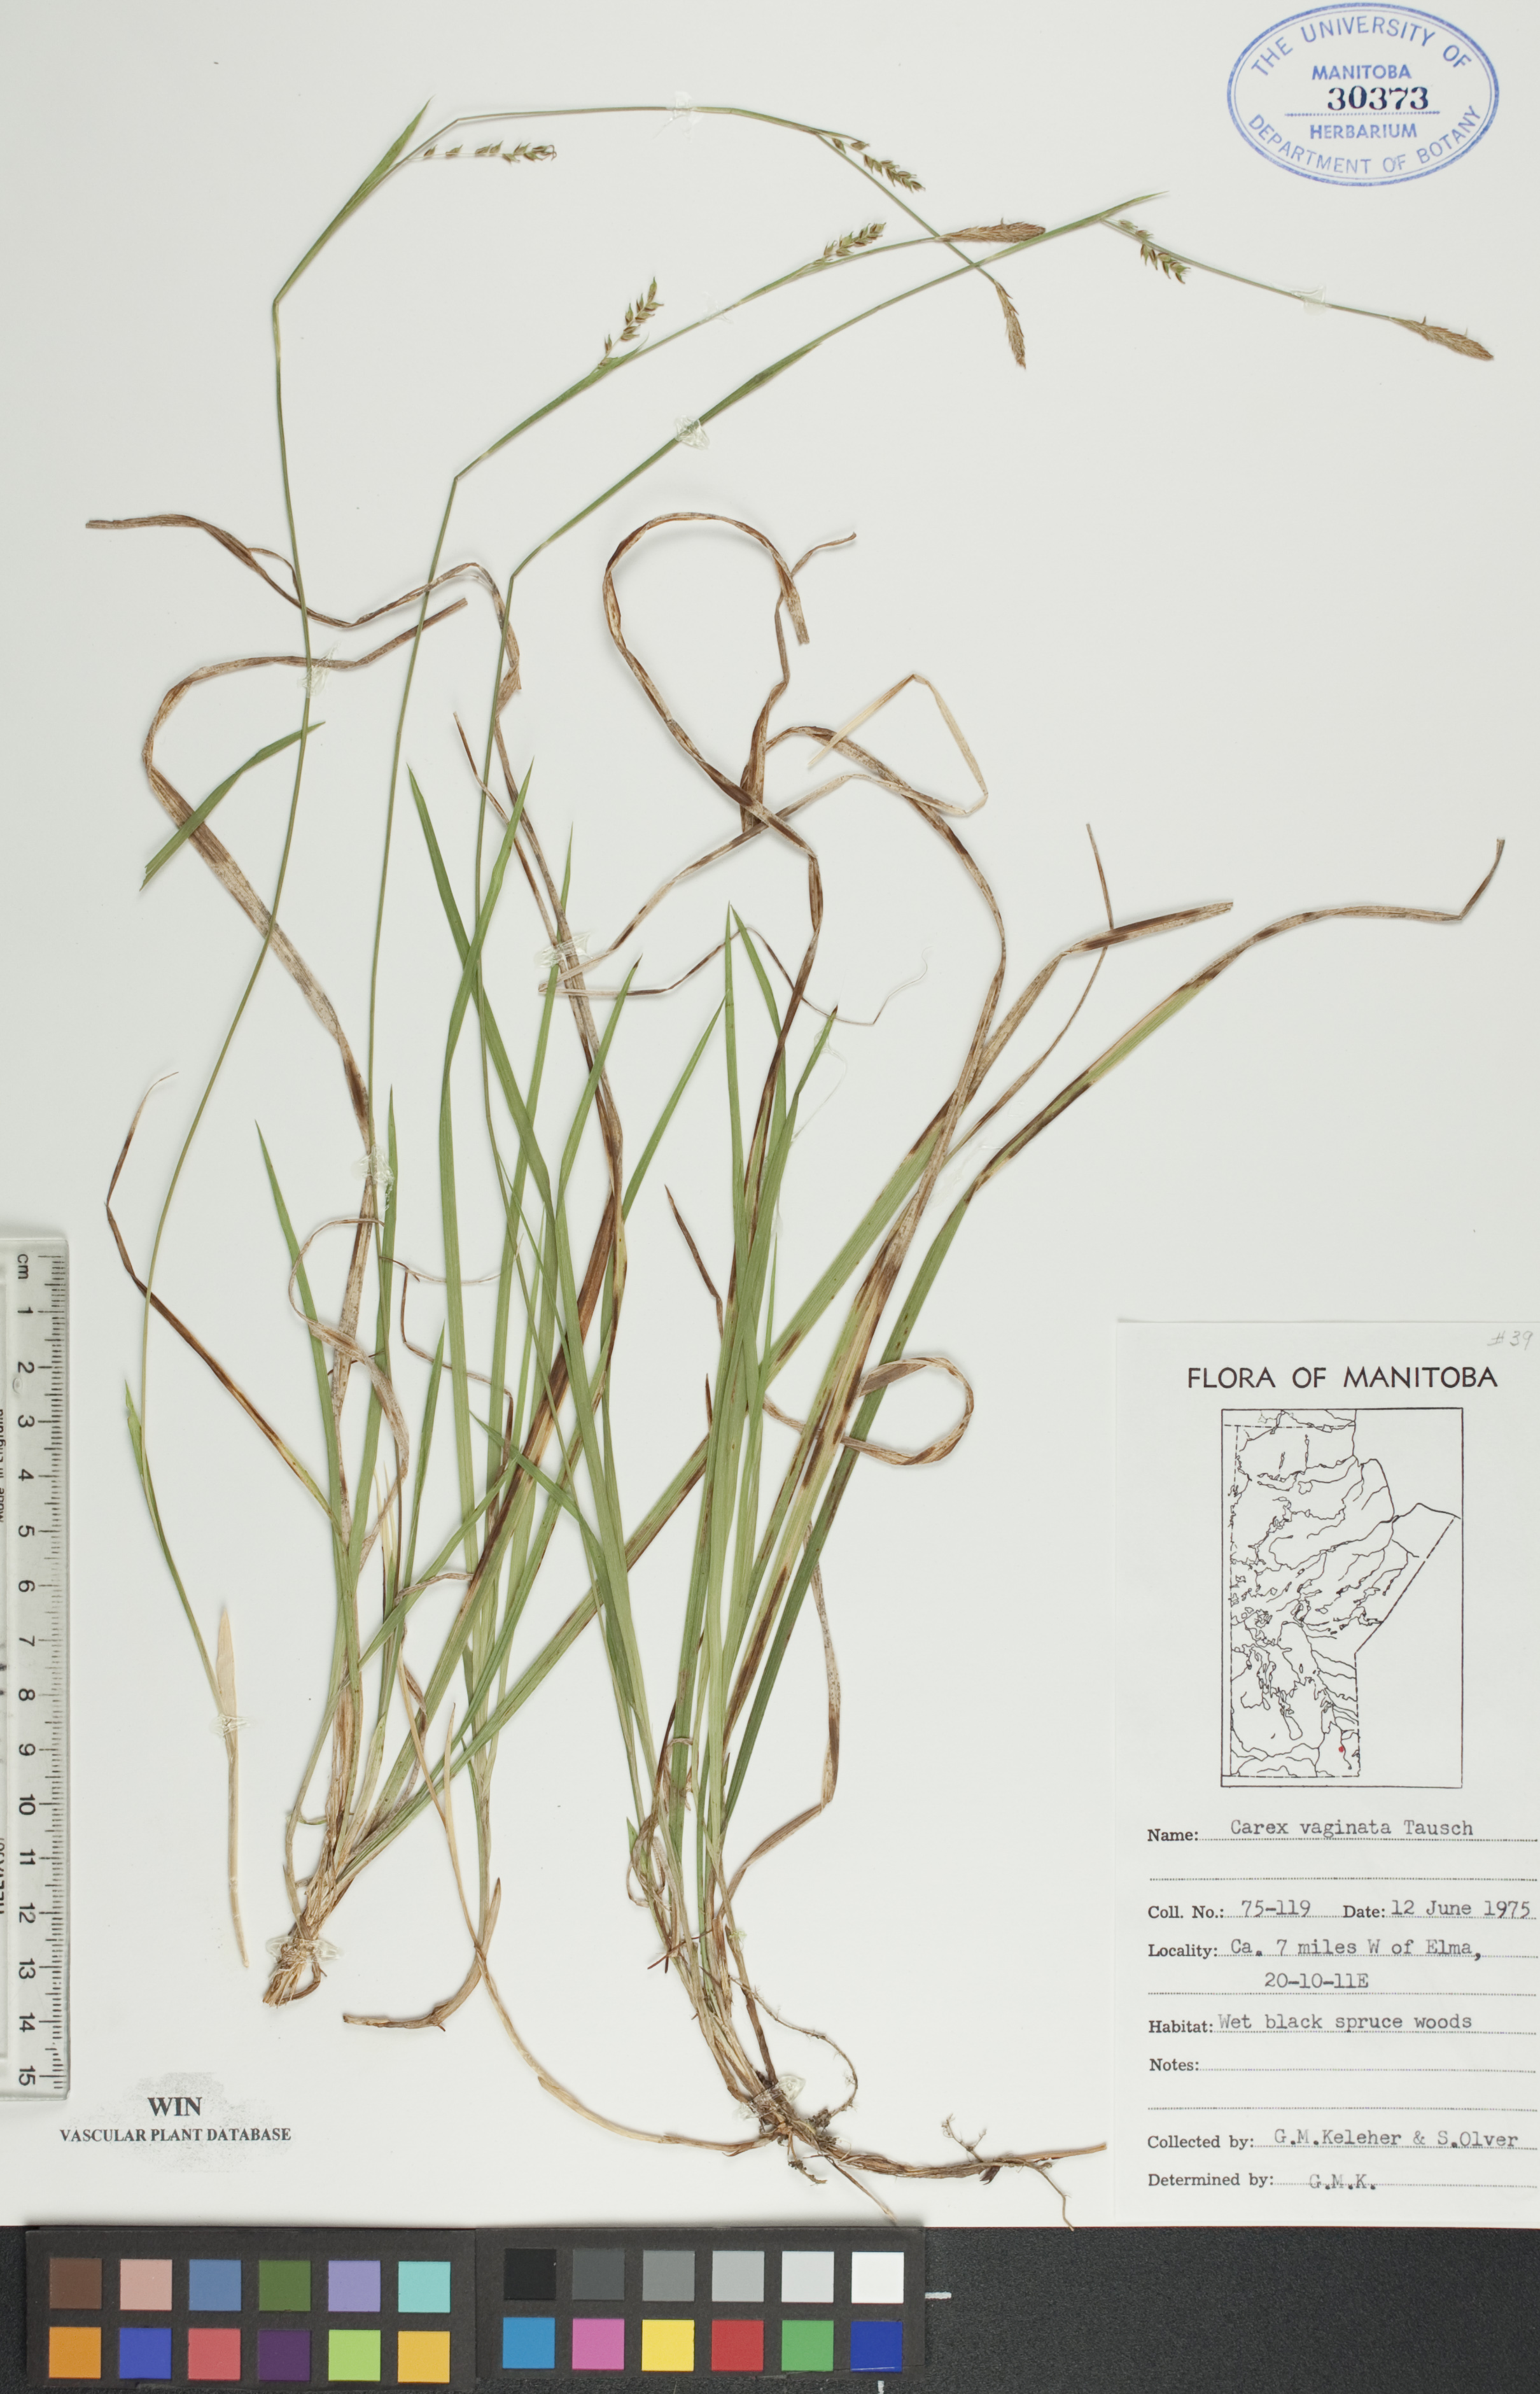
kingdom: Plantae
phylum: Tracheophyta
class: Liliopsida
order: Poales
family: Cyperaceae
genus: Carex
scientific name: Carex vaginata
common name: Sheathed sedge
